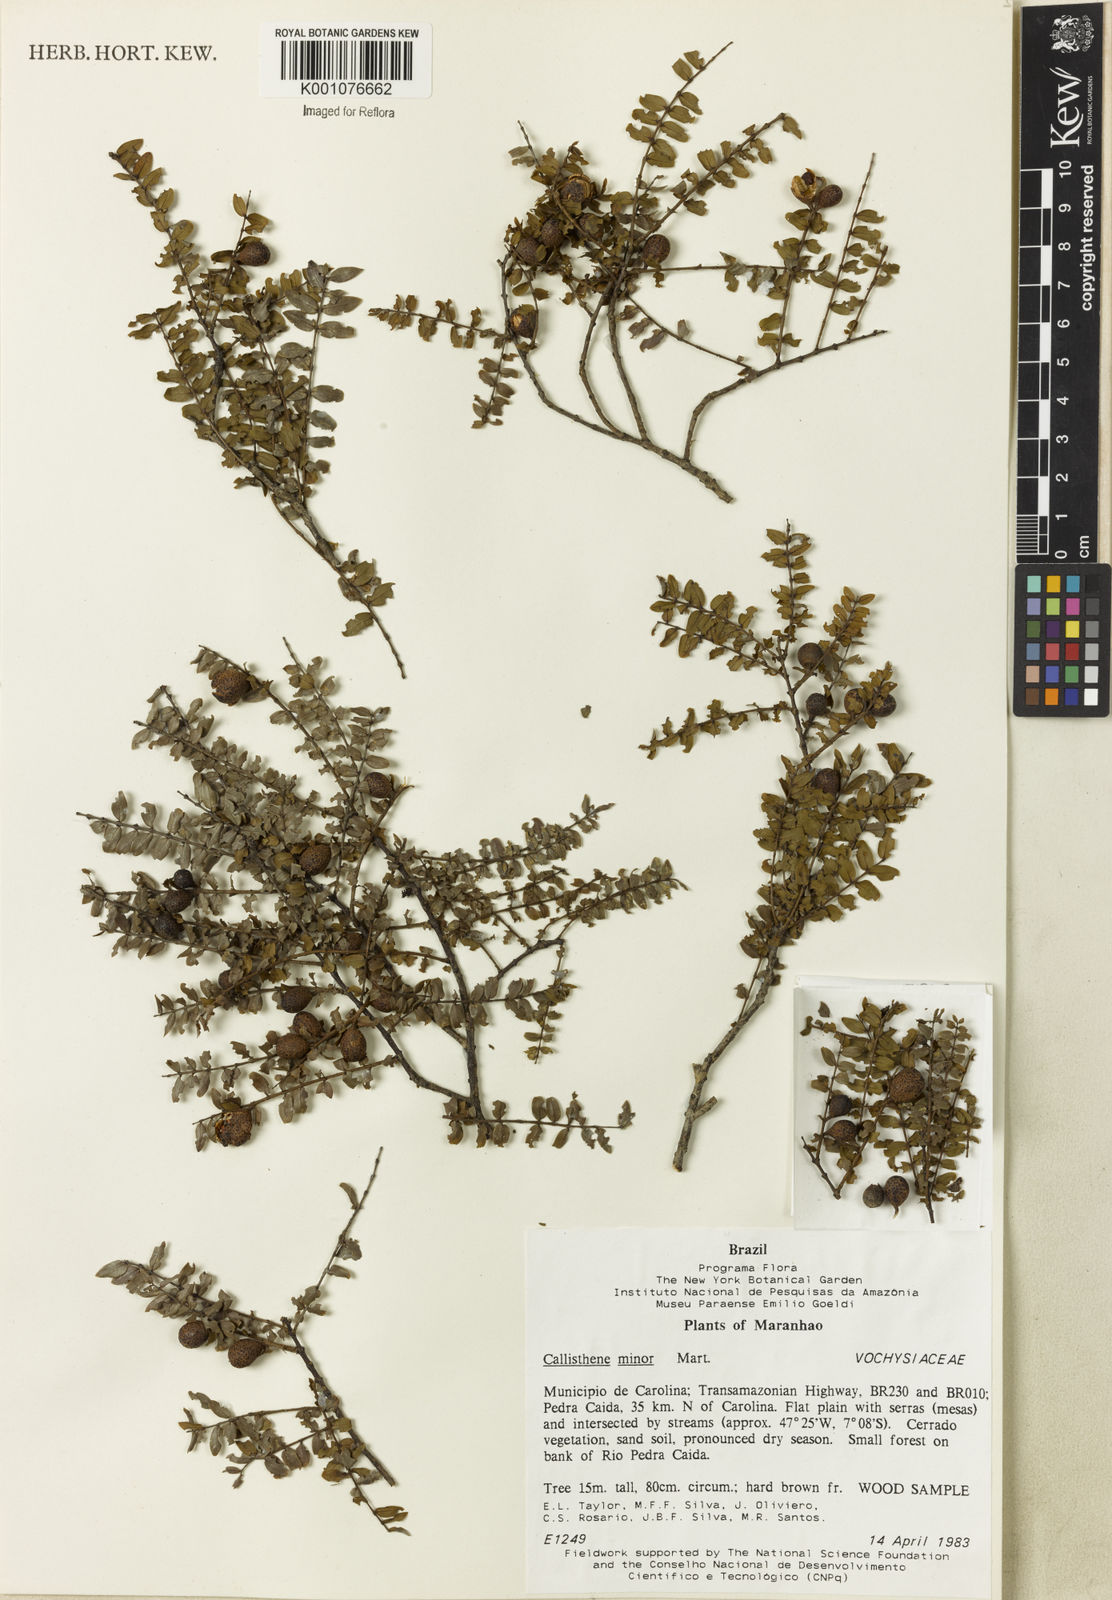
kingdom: Plantae
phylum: Tracheophyta
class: Magnoliopsida
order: Myrtales
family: Vochysiaceae
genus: Callisthene
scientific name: Callisthene minor
